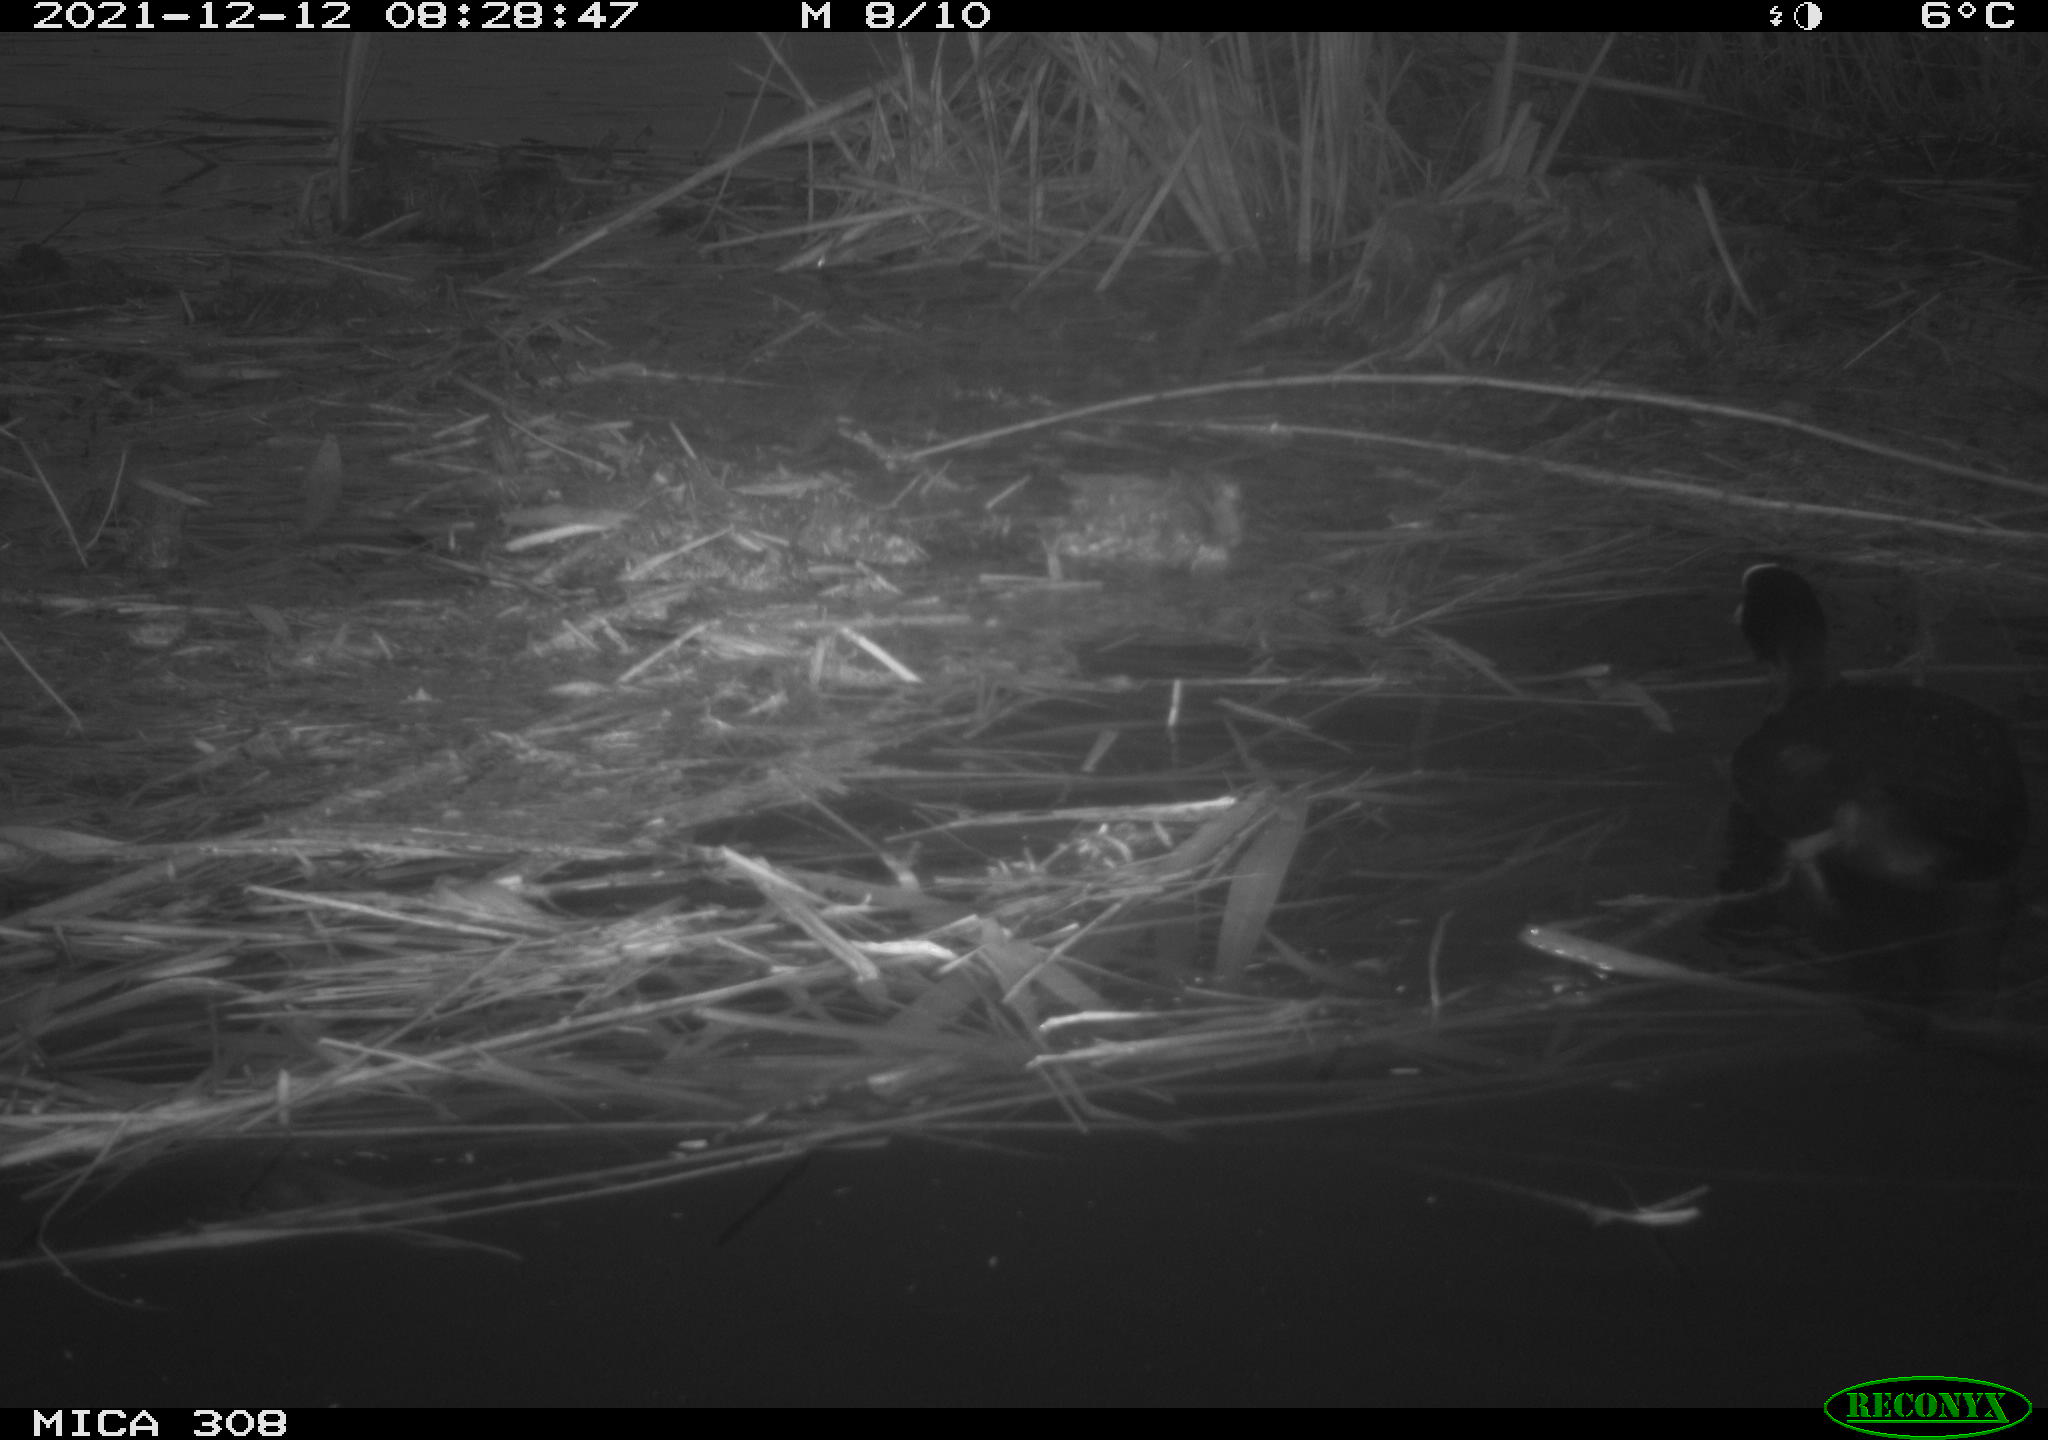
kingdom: Animalia
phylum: Chordata
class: Aves
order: Gruiformes
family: Rallidae
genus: Fulica
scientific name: Fulica atra
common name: Eurasian coot
